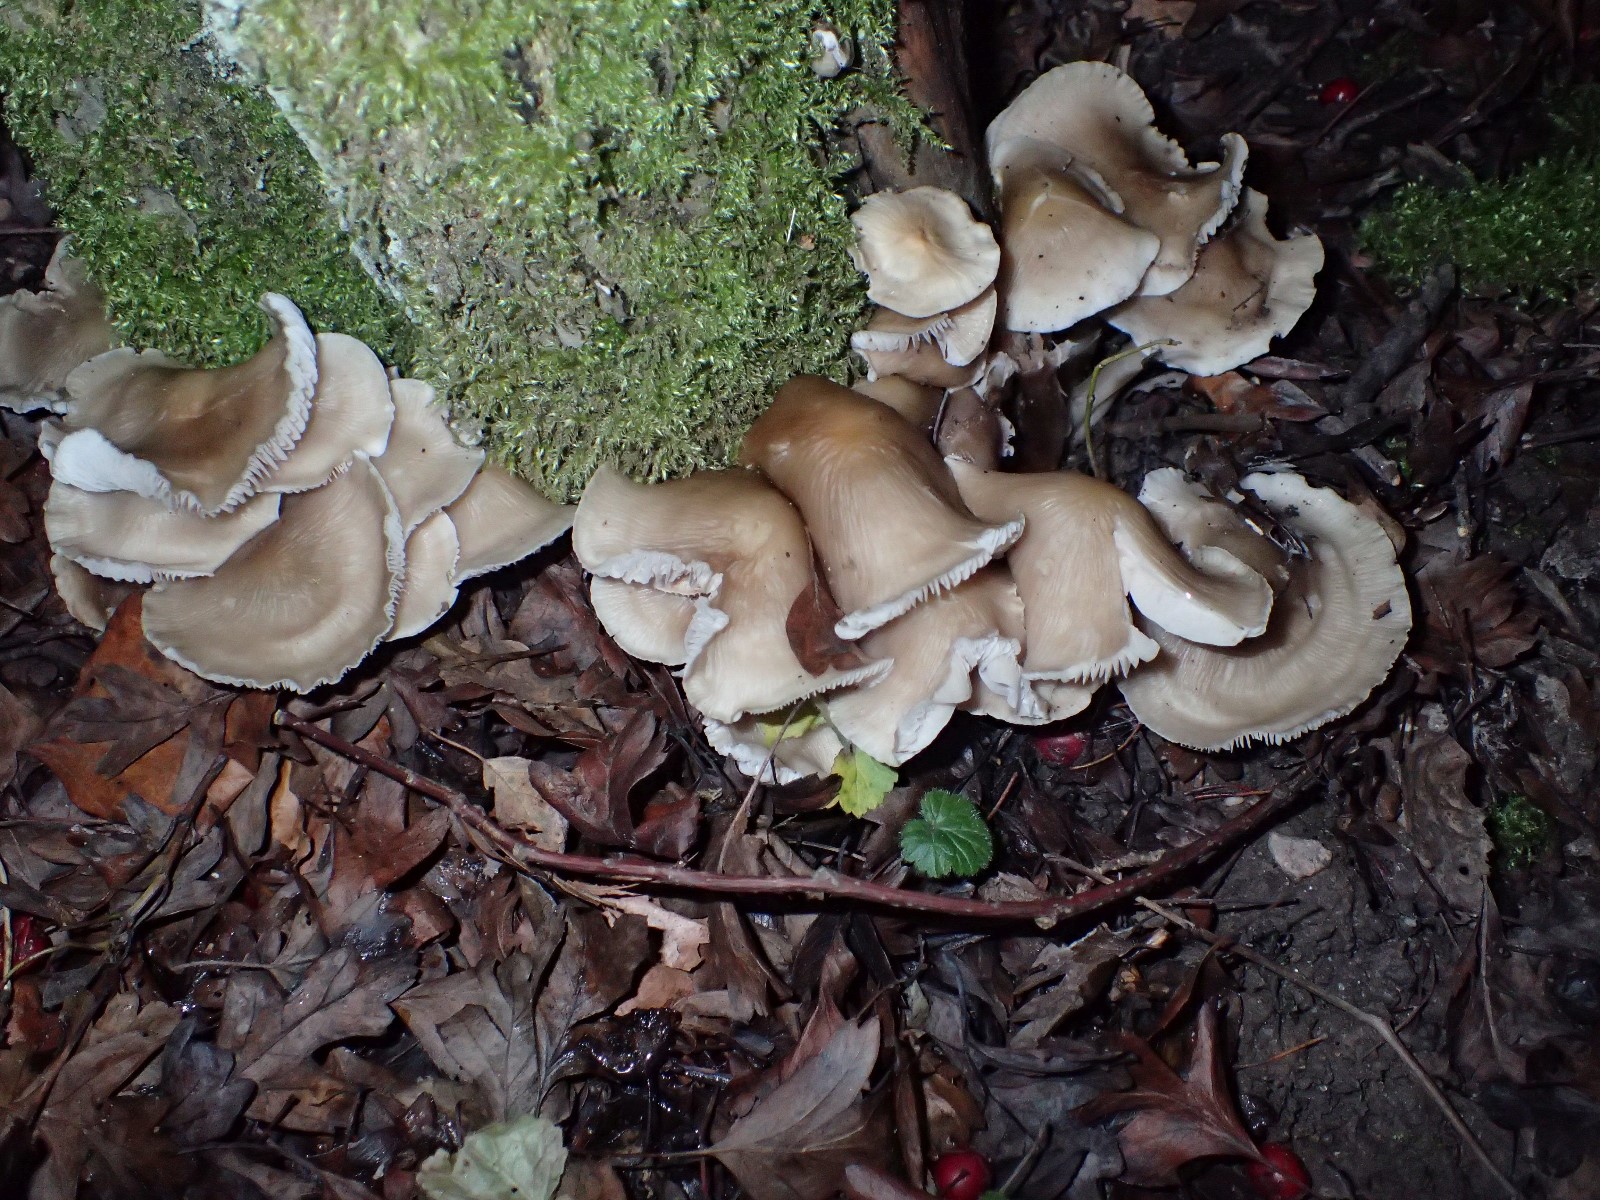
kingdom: Fungi
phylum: Basidiomycota
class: Agaricomycetes
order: Agaricales
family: Mycenaceae
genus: Mycena
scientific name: Mycena galericulata
